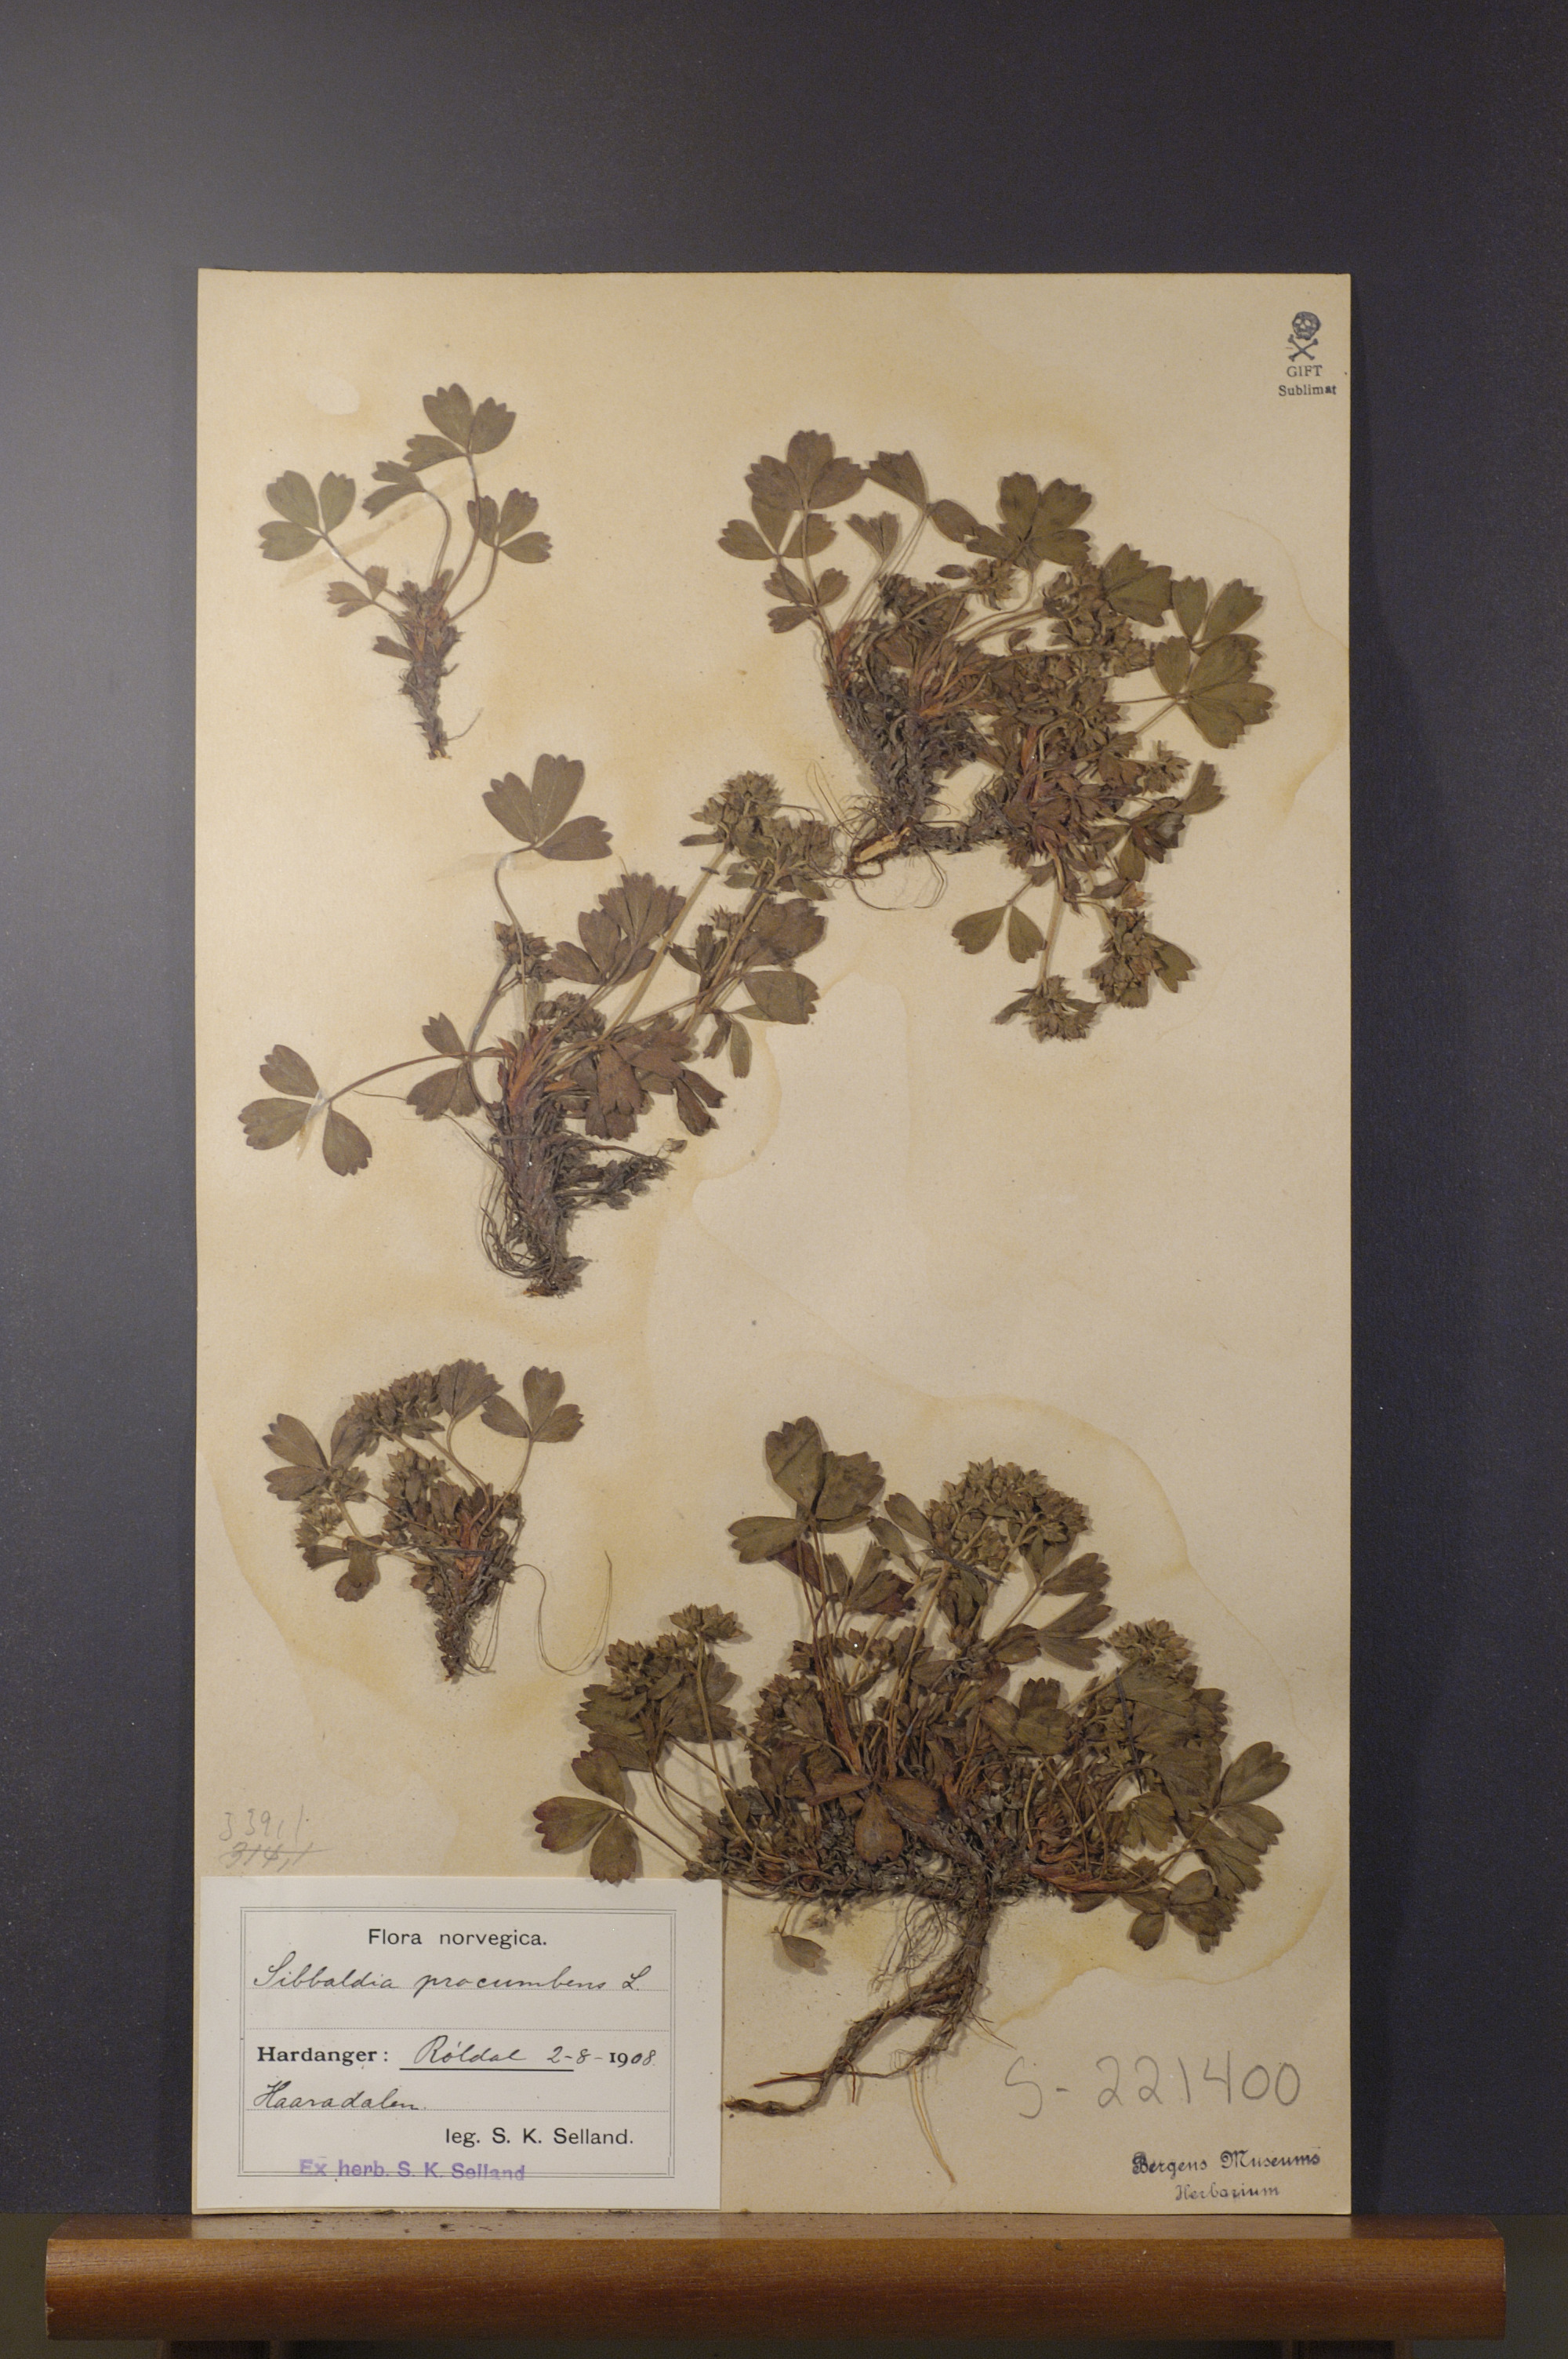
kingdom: Plantae
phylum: Tracheophyta
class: Magnoliopsida
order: Rosales
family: Rosaceae
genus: Sibbaldia
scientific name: Sibbaldia procumbens
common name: Creeping sibbaldia
